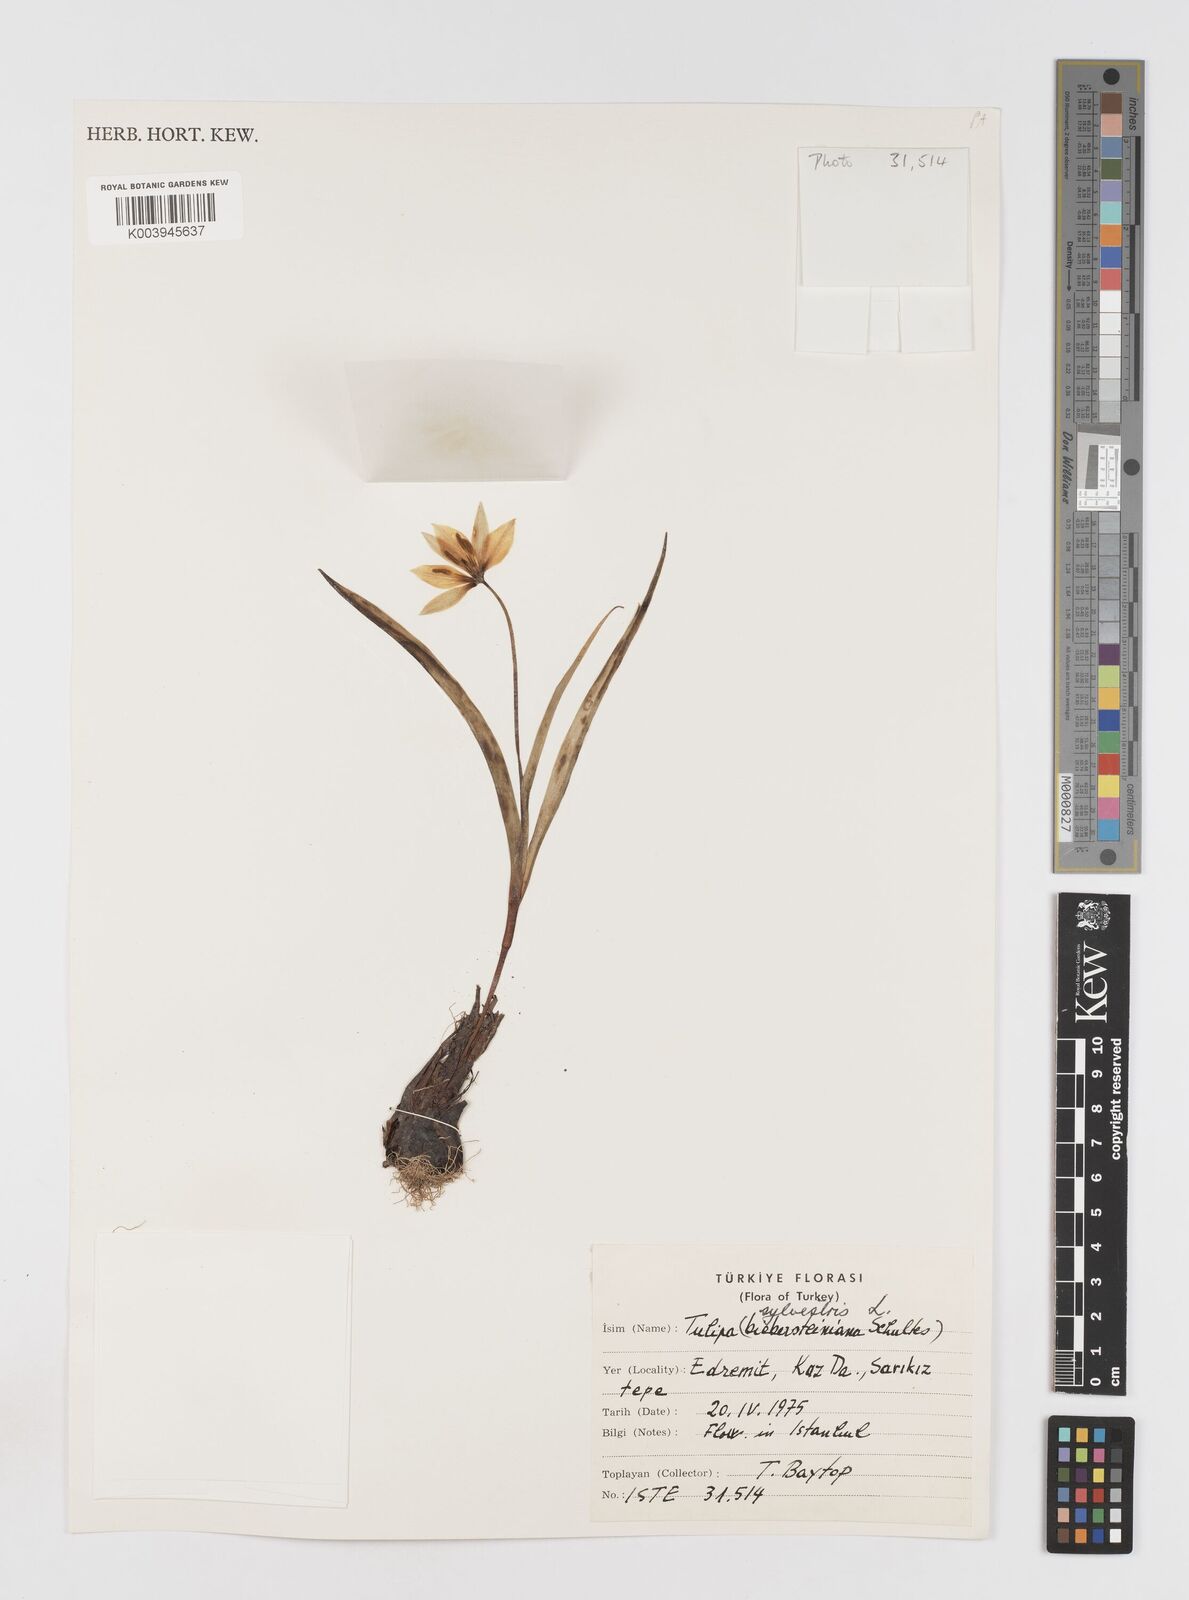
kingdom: Plantae
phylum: Tracheophyta
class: Liliopsida
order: Liliales
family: Liliaceae
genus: Tulipa
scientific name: Tulipa sylvestris
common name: Wild tulip
